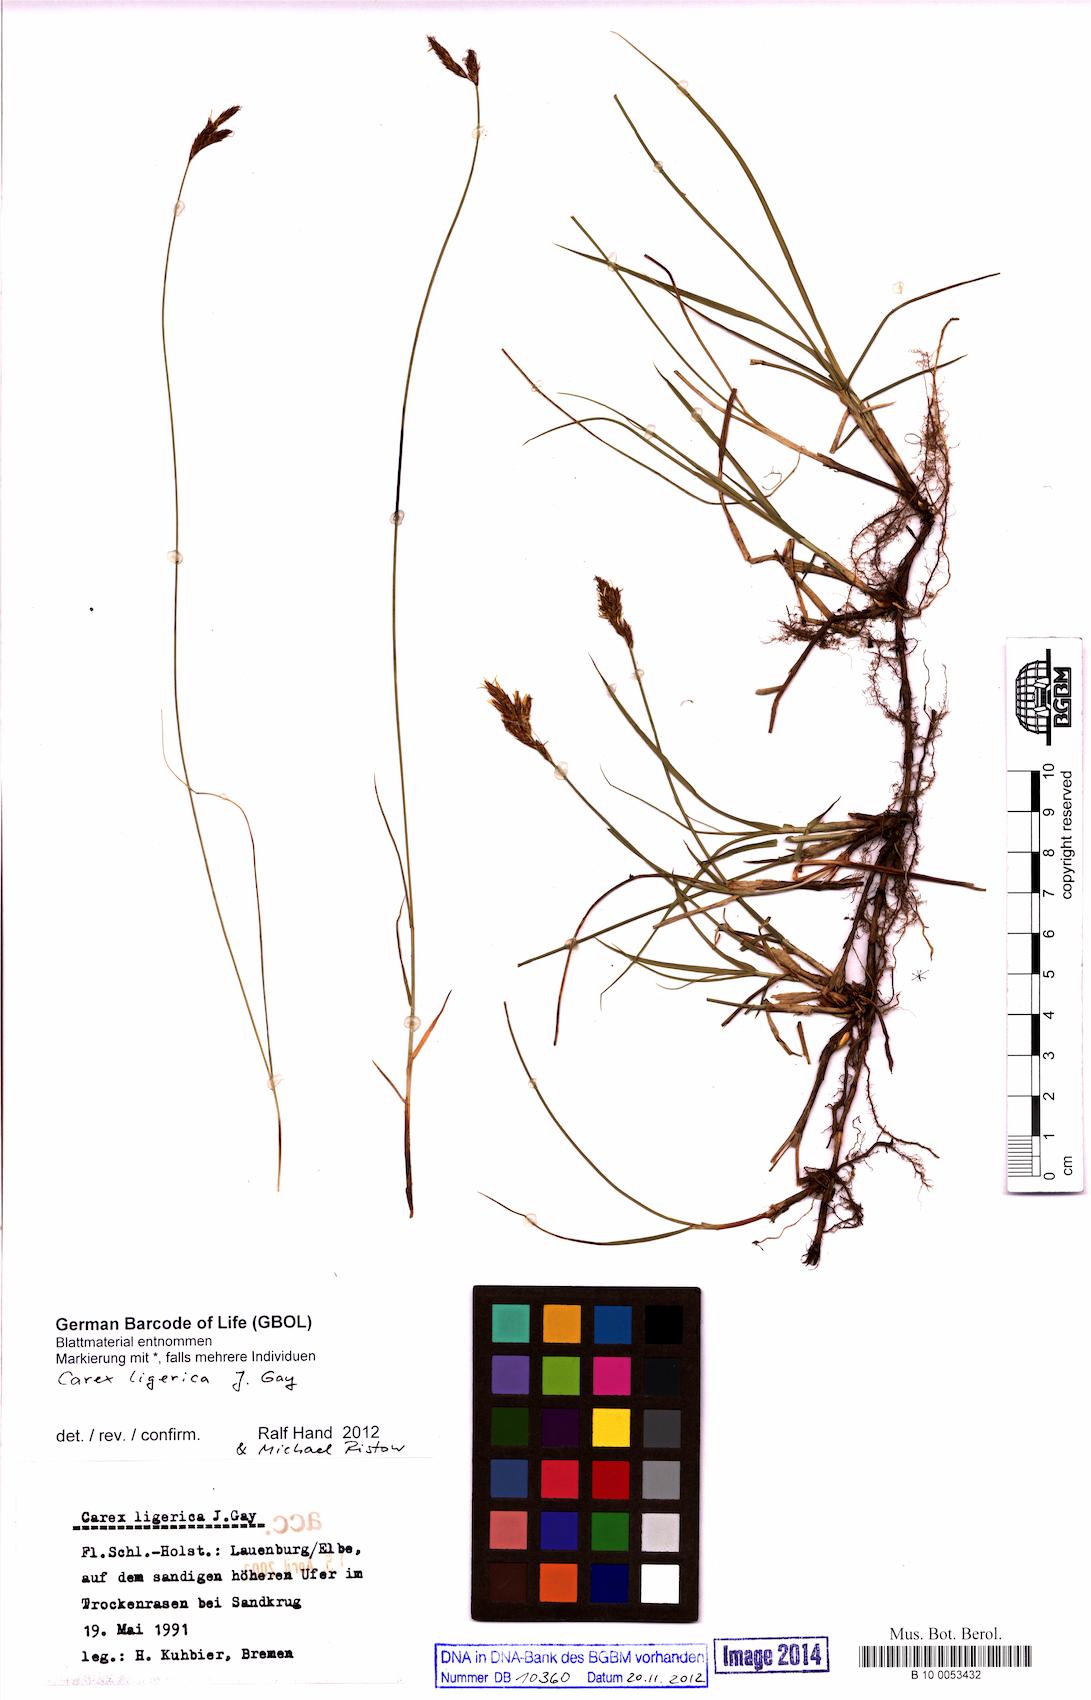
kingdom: Plantae
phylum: Tracheophyta
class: Liliopsida
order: Poales
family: Cyperaceae
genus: Carex
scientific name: Carex colchica
